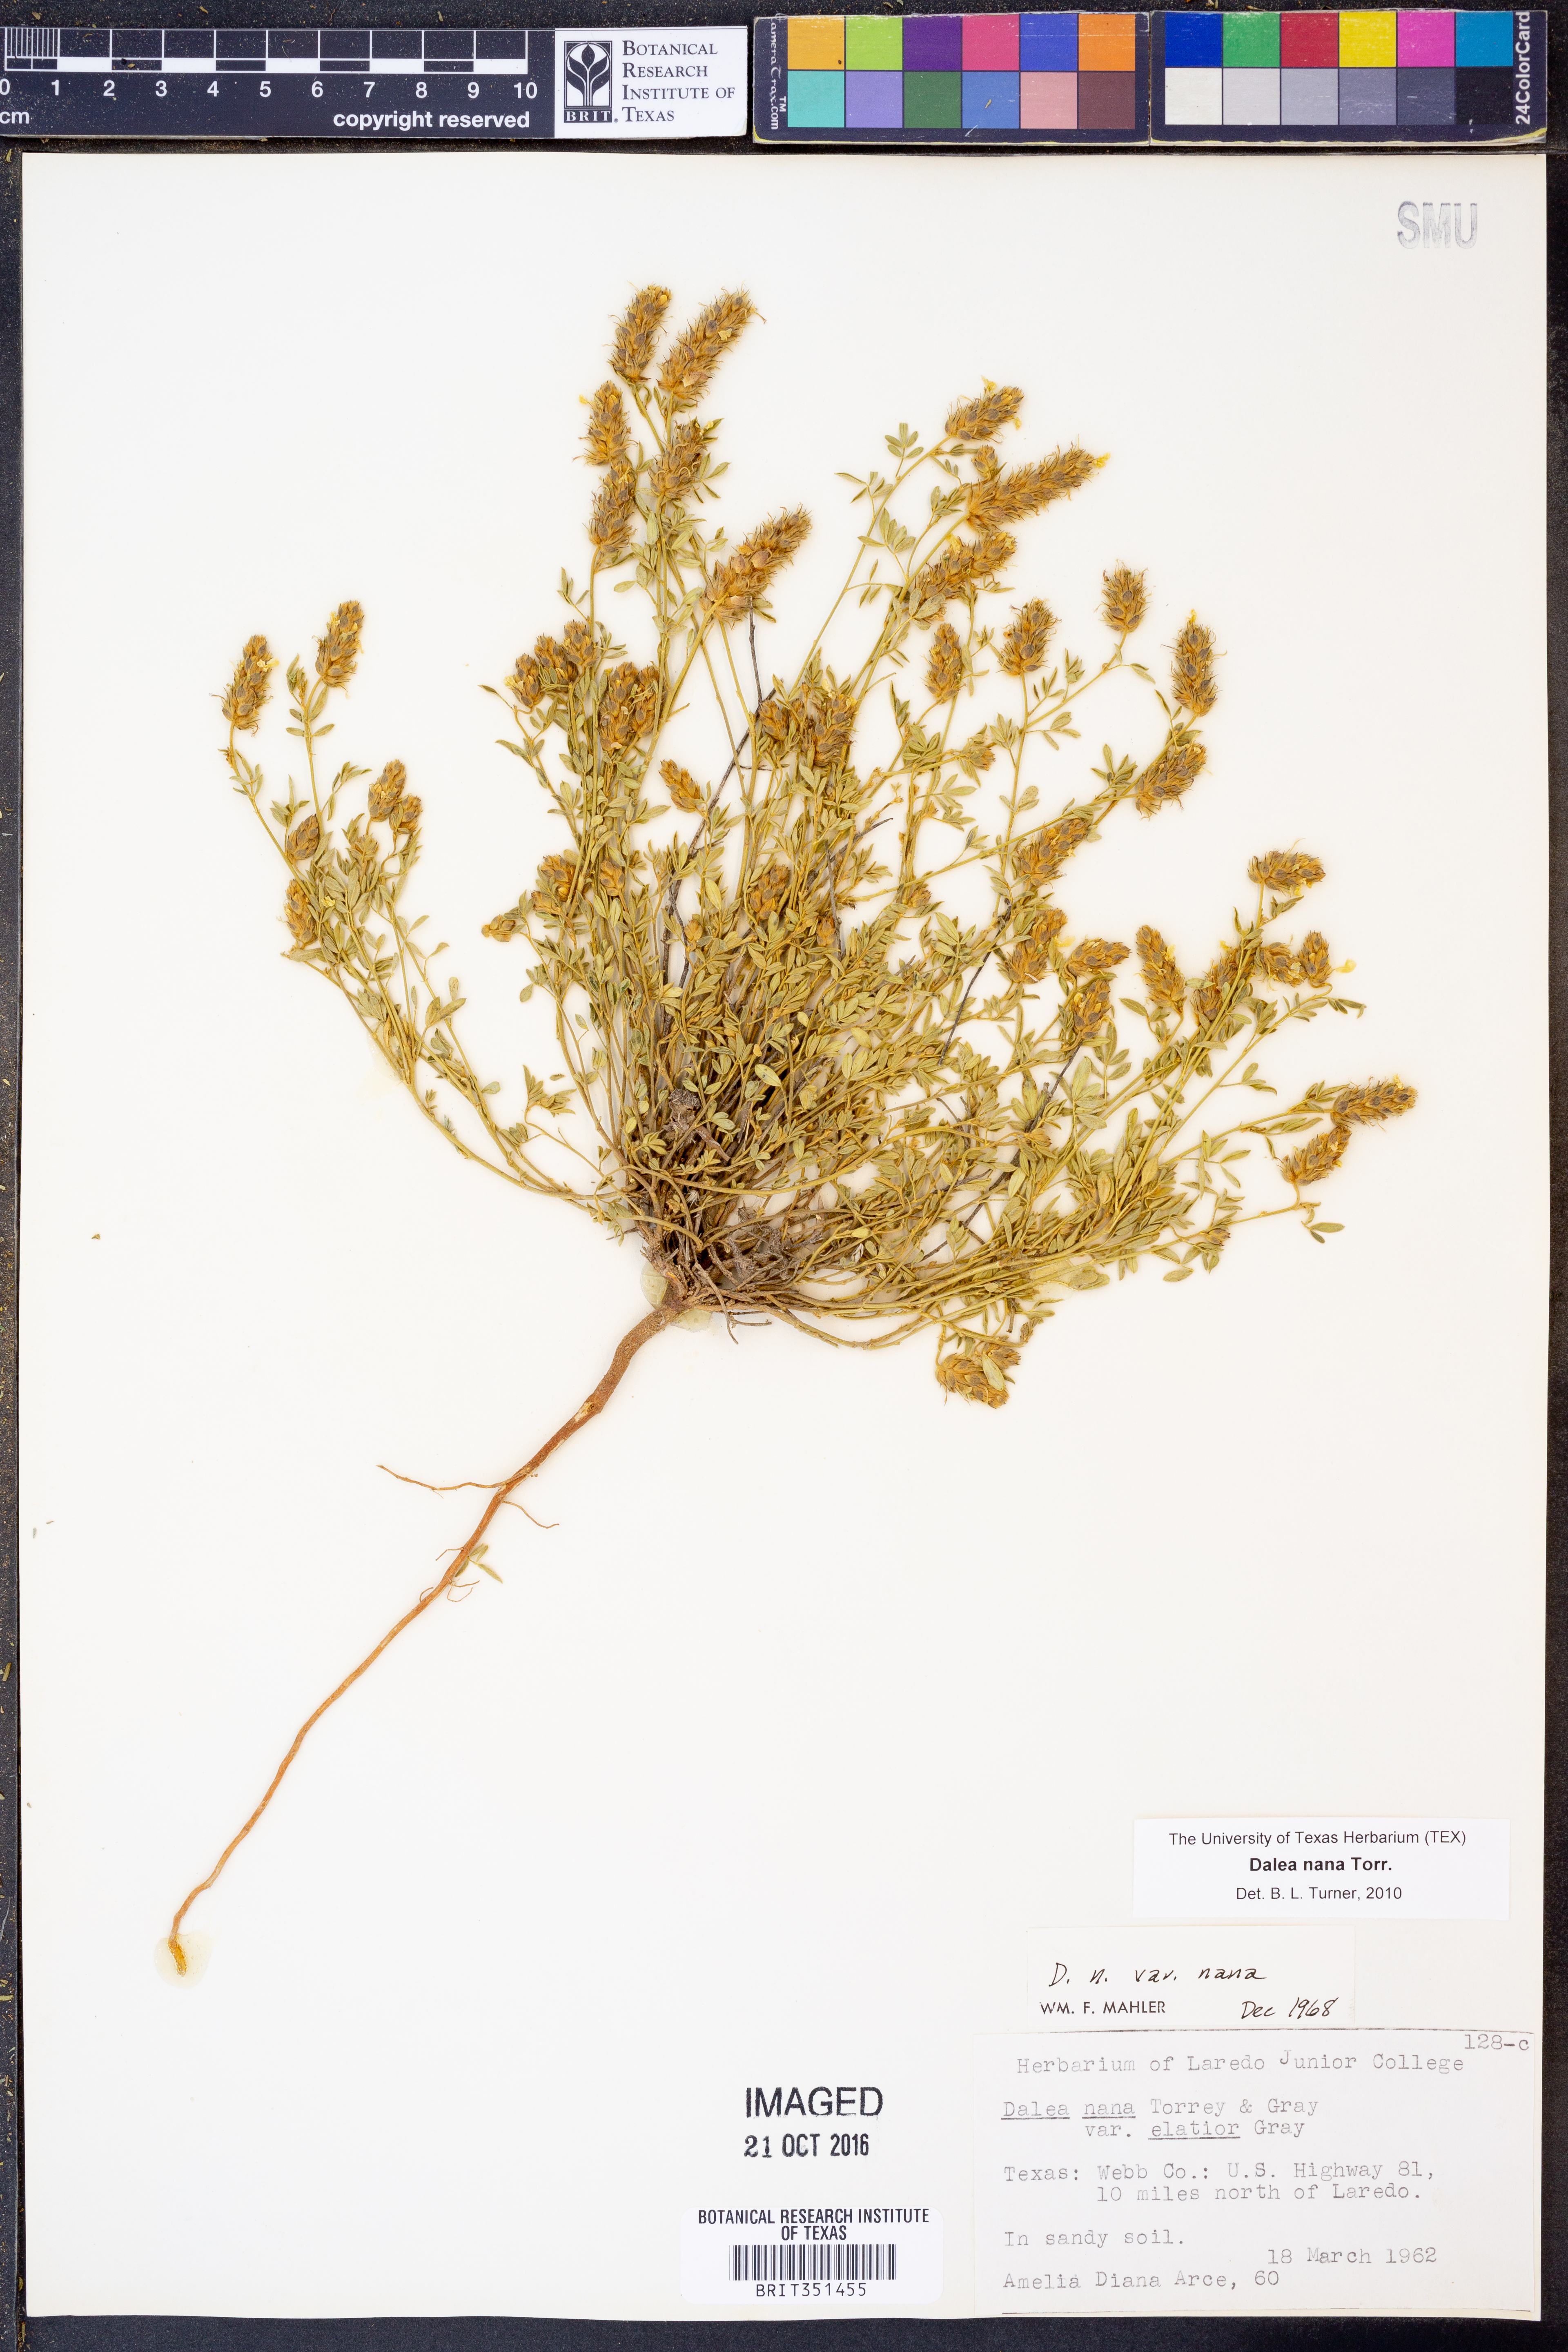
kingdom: Plantae
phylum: Tracheophyta
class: Magnoliopsida
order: Fabales
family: Fabaceae
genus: Dalea
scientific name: Dalea nana
